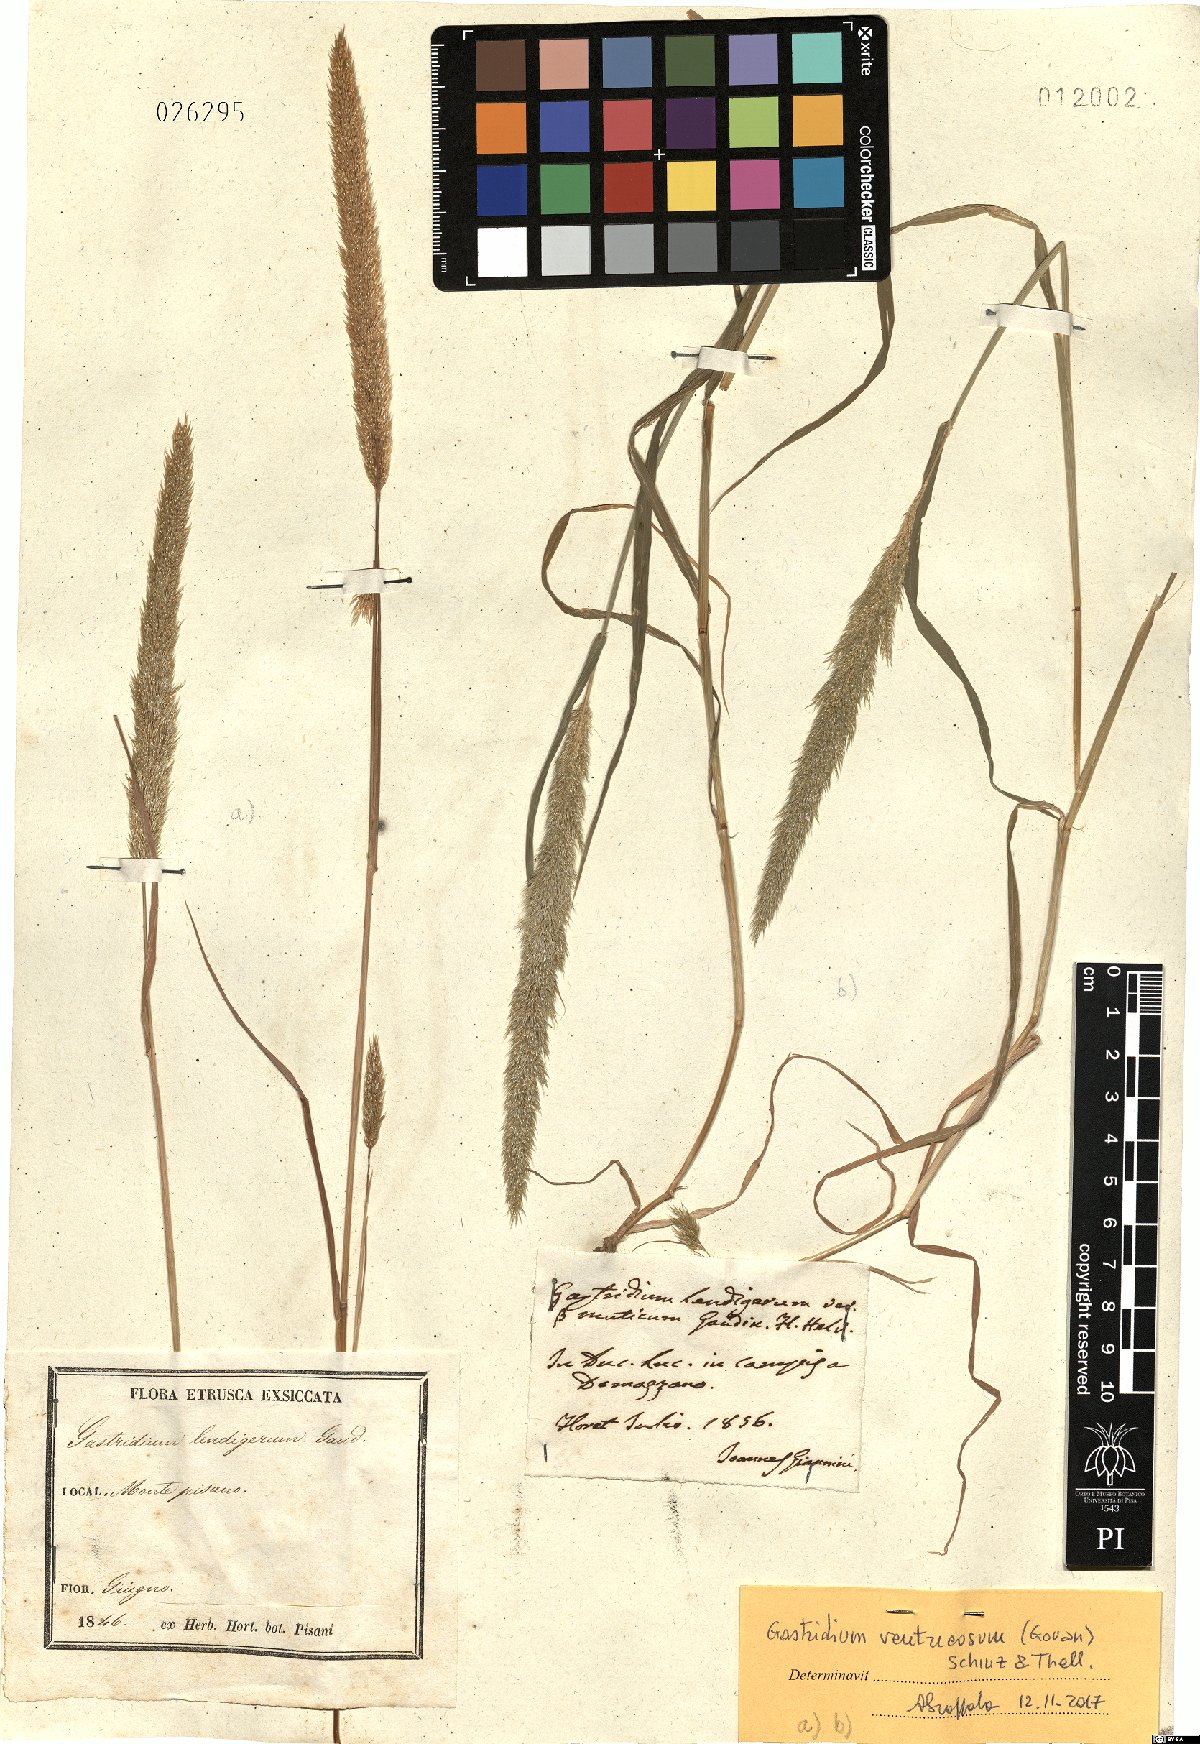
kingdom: Plantae
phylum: Tracheophyta
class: Liliopsida
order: Poales
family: Poaceae
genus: Gastridium
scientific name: Gastridium ventricosum
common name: Nit-grass
